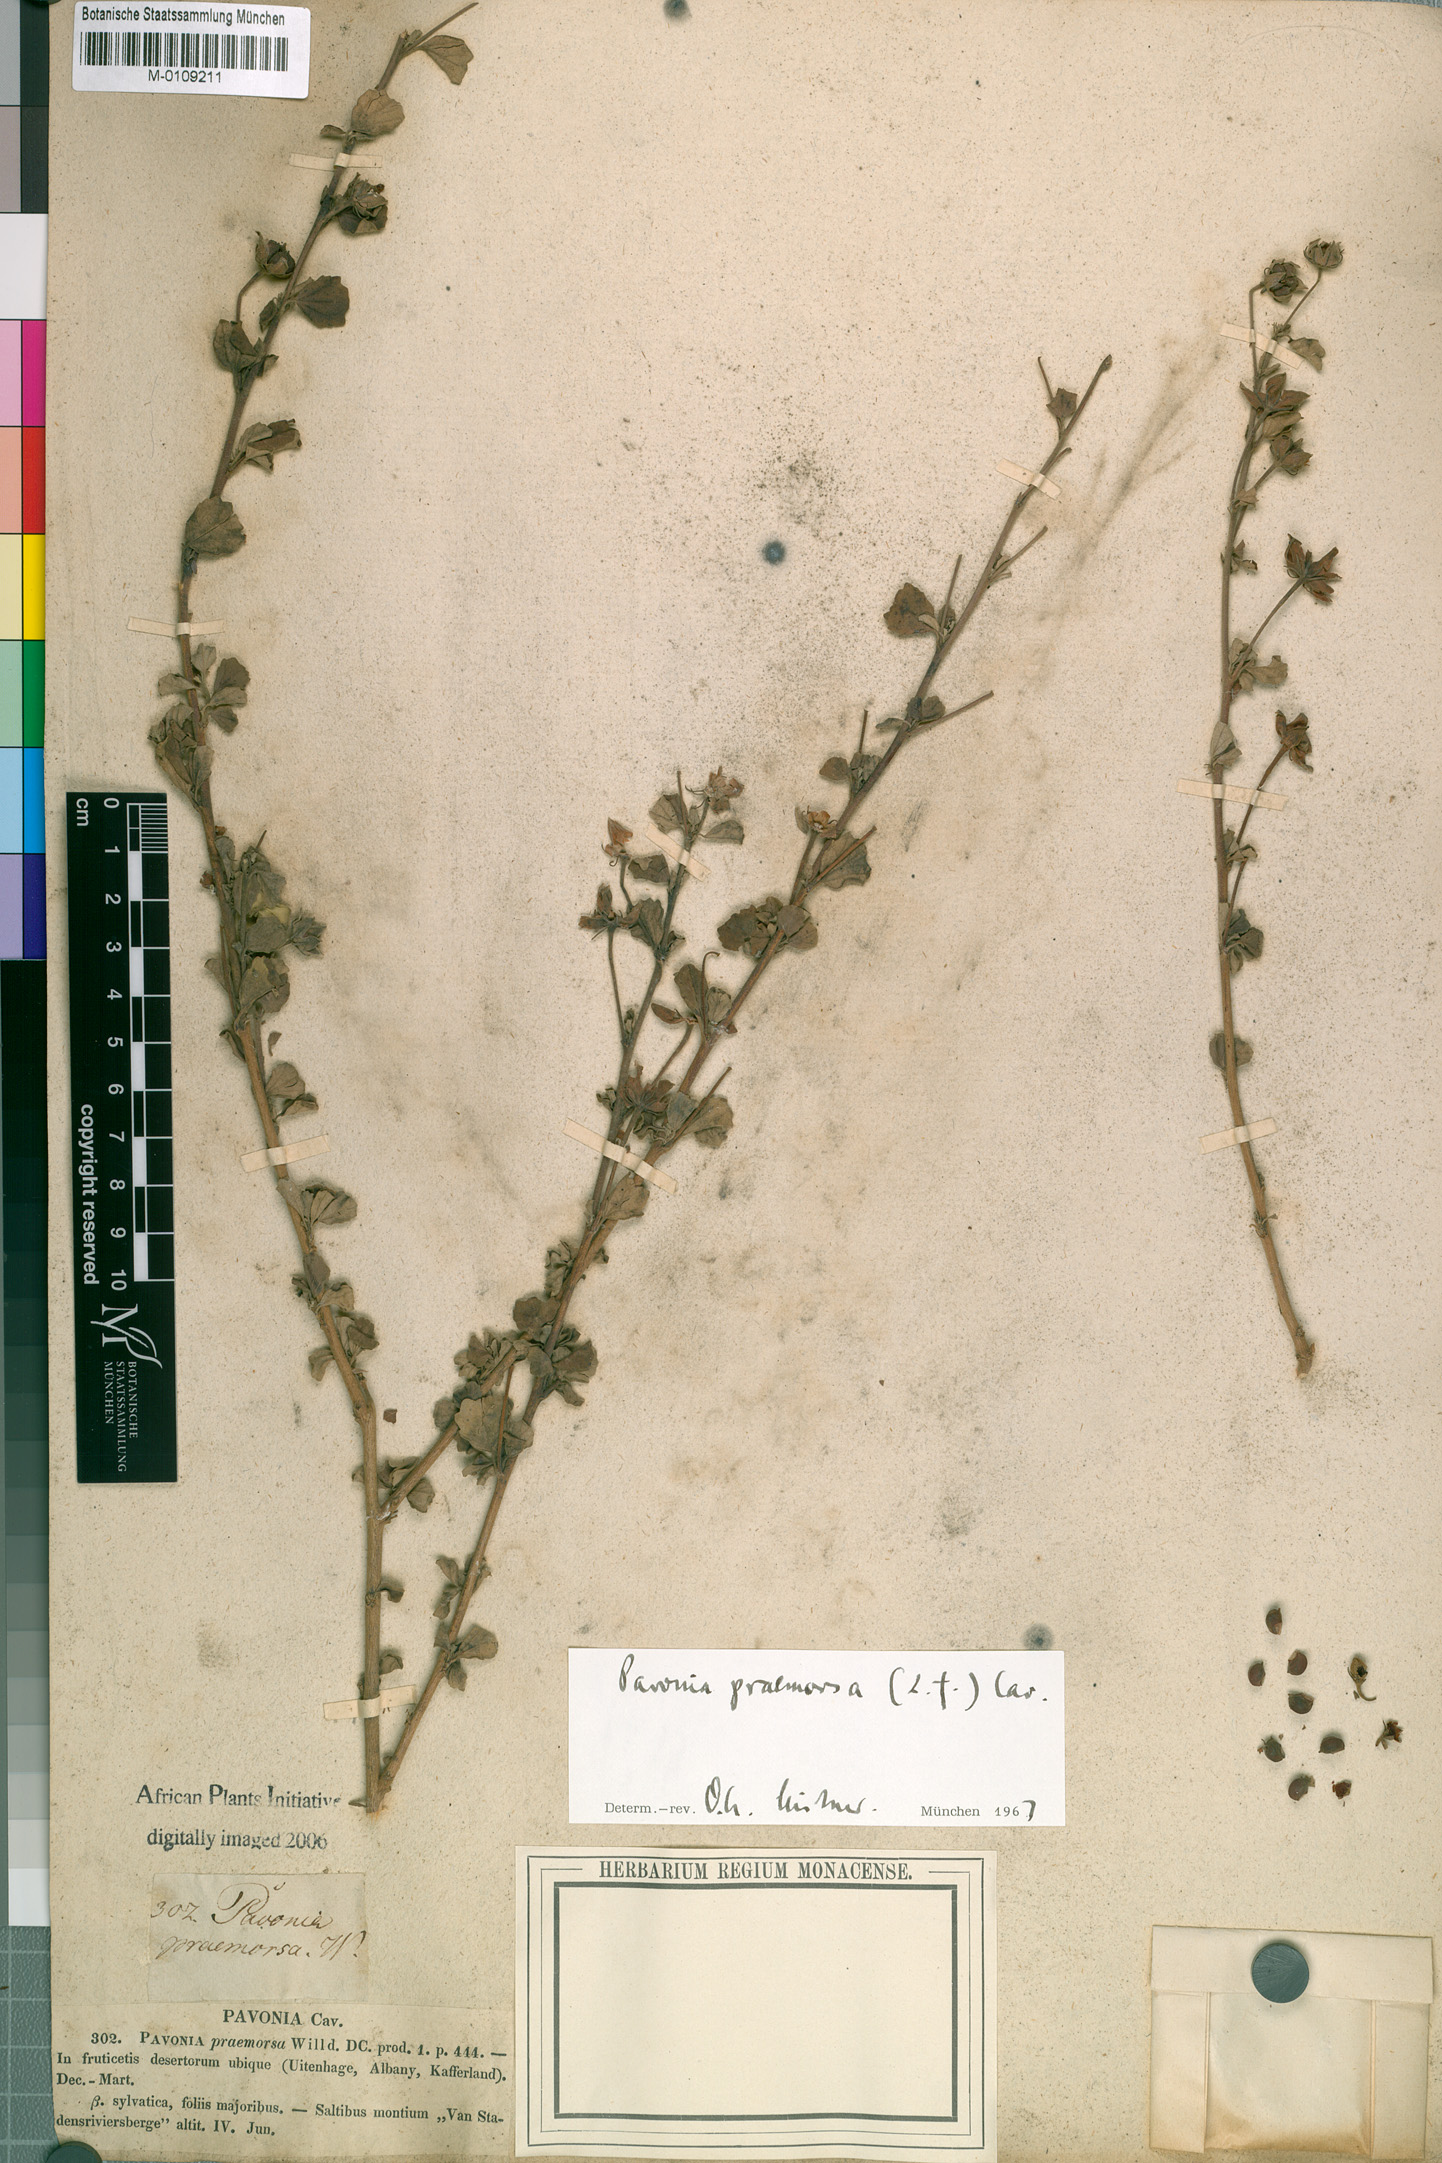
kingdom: Plantae
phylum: Tracheophyta
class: Magnoliopsida
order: Malvales
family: Malvaceae
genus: Pavonia
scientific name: Pavonia praemorsa
